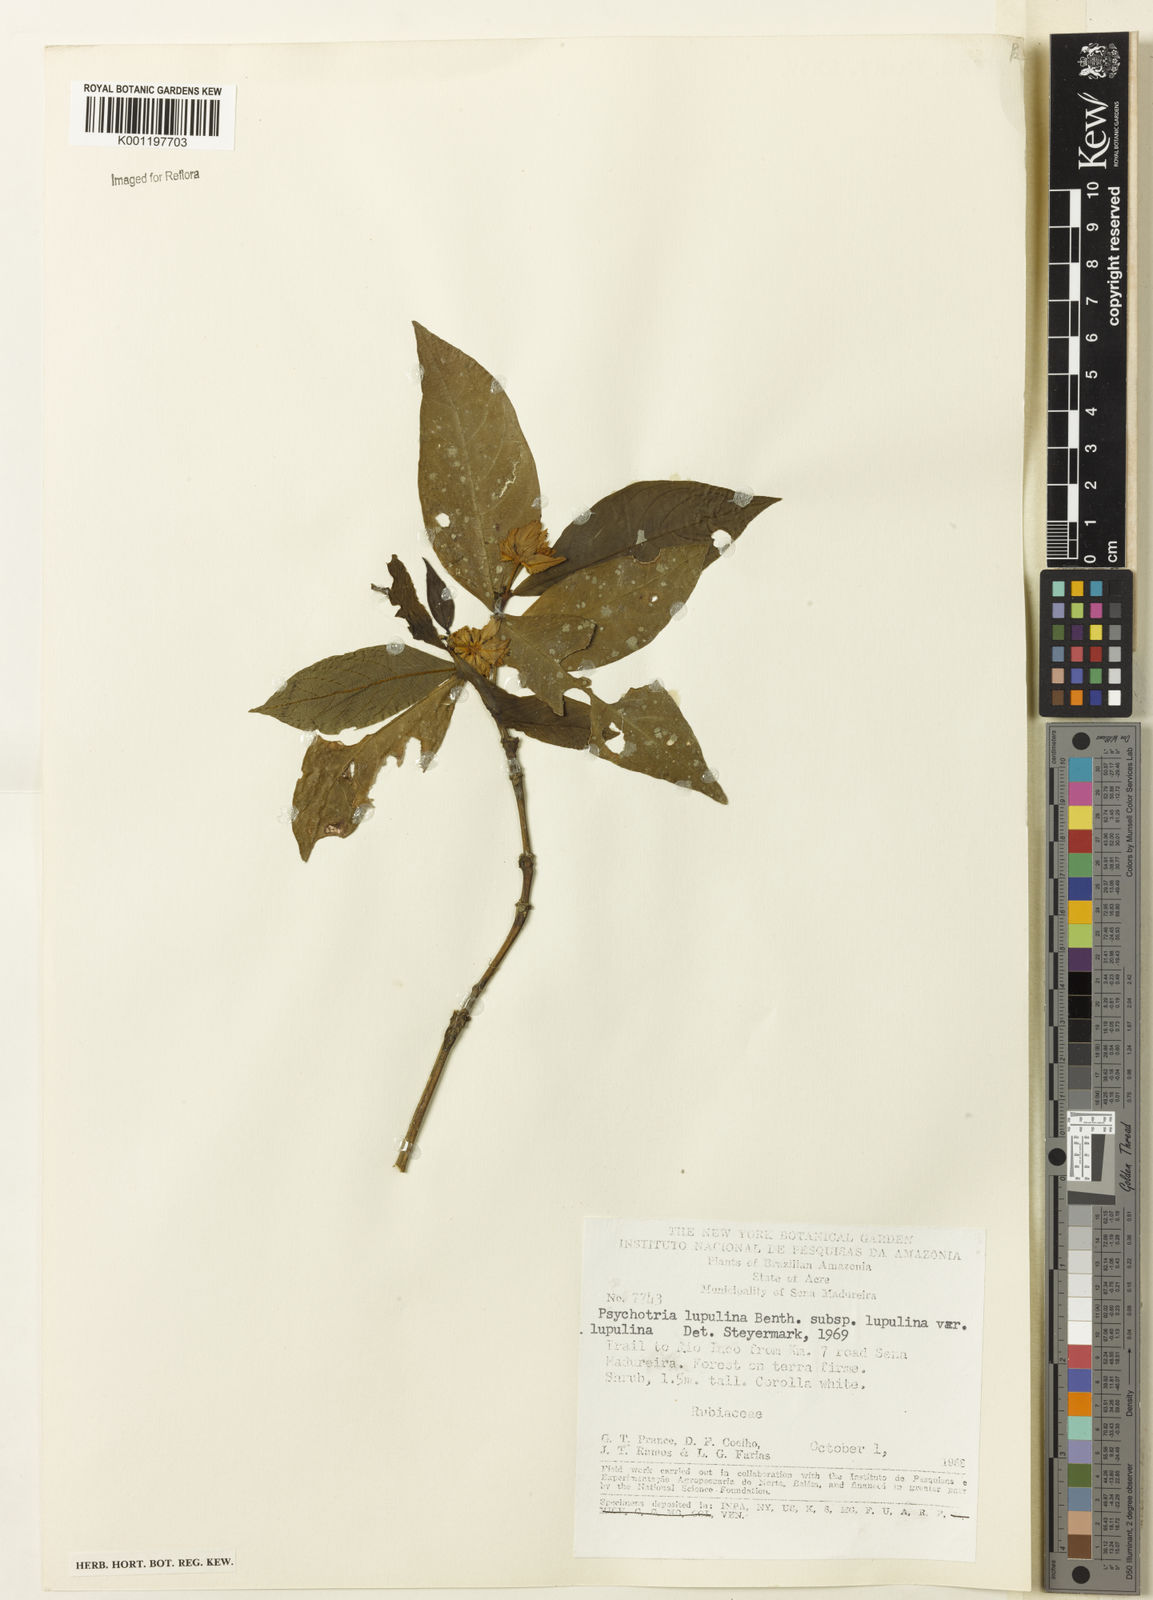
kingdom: Plantae
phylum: Tracheophyta
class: Magnoliopsida
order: Gentianales
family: Rubiaceae
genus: Palicourea
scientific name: Palicourea justiciifolia
